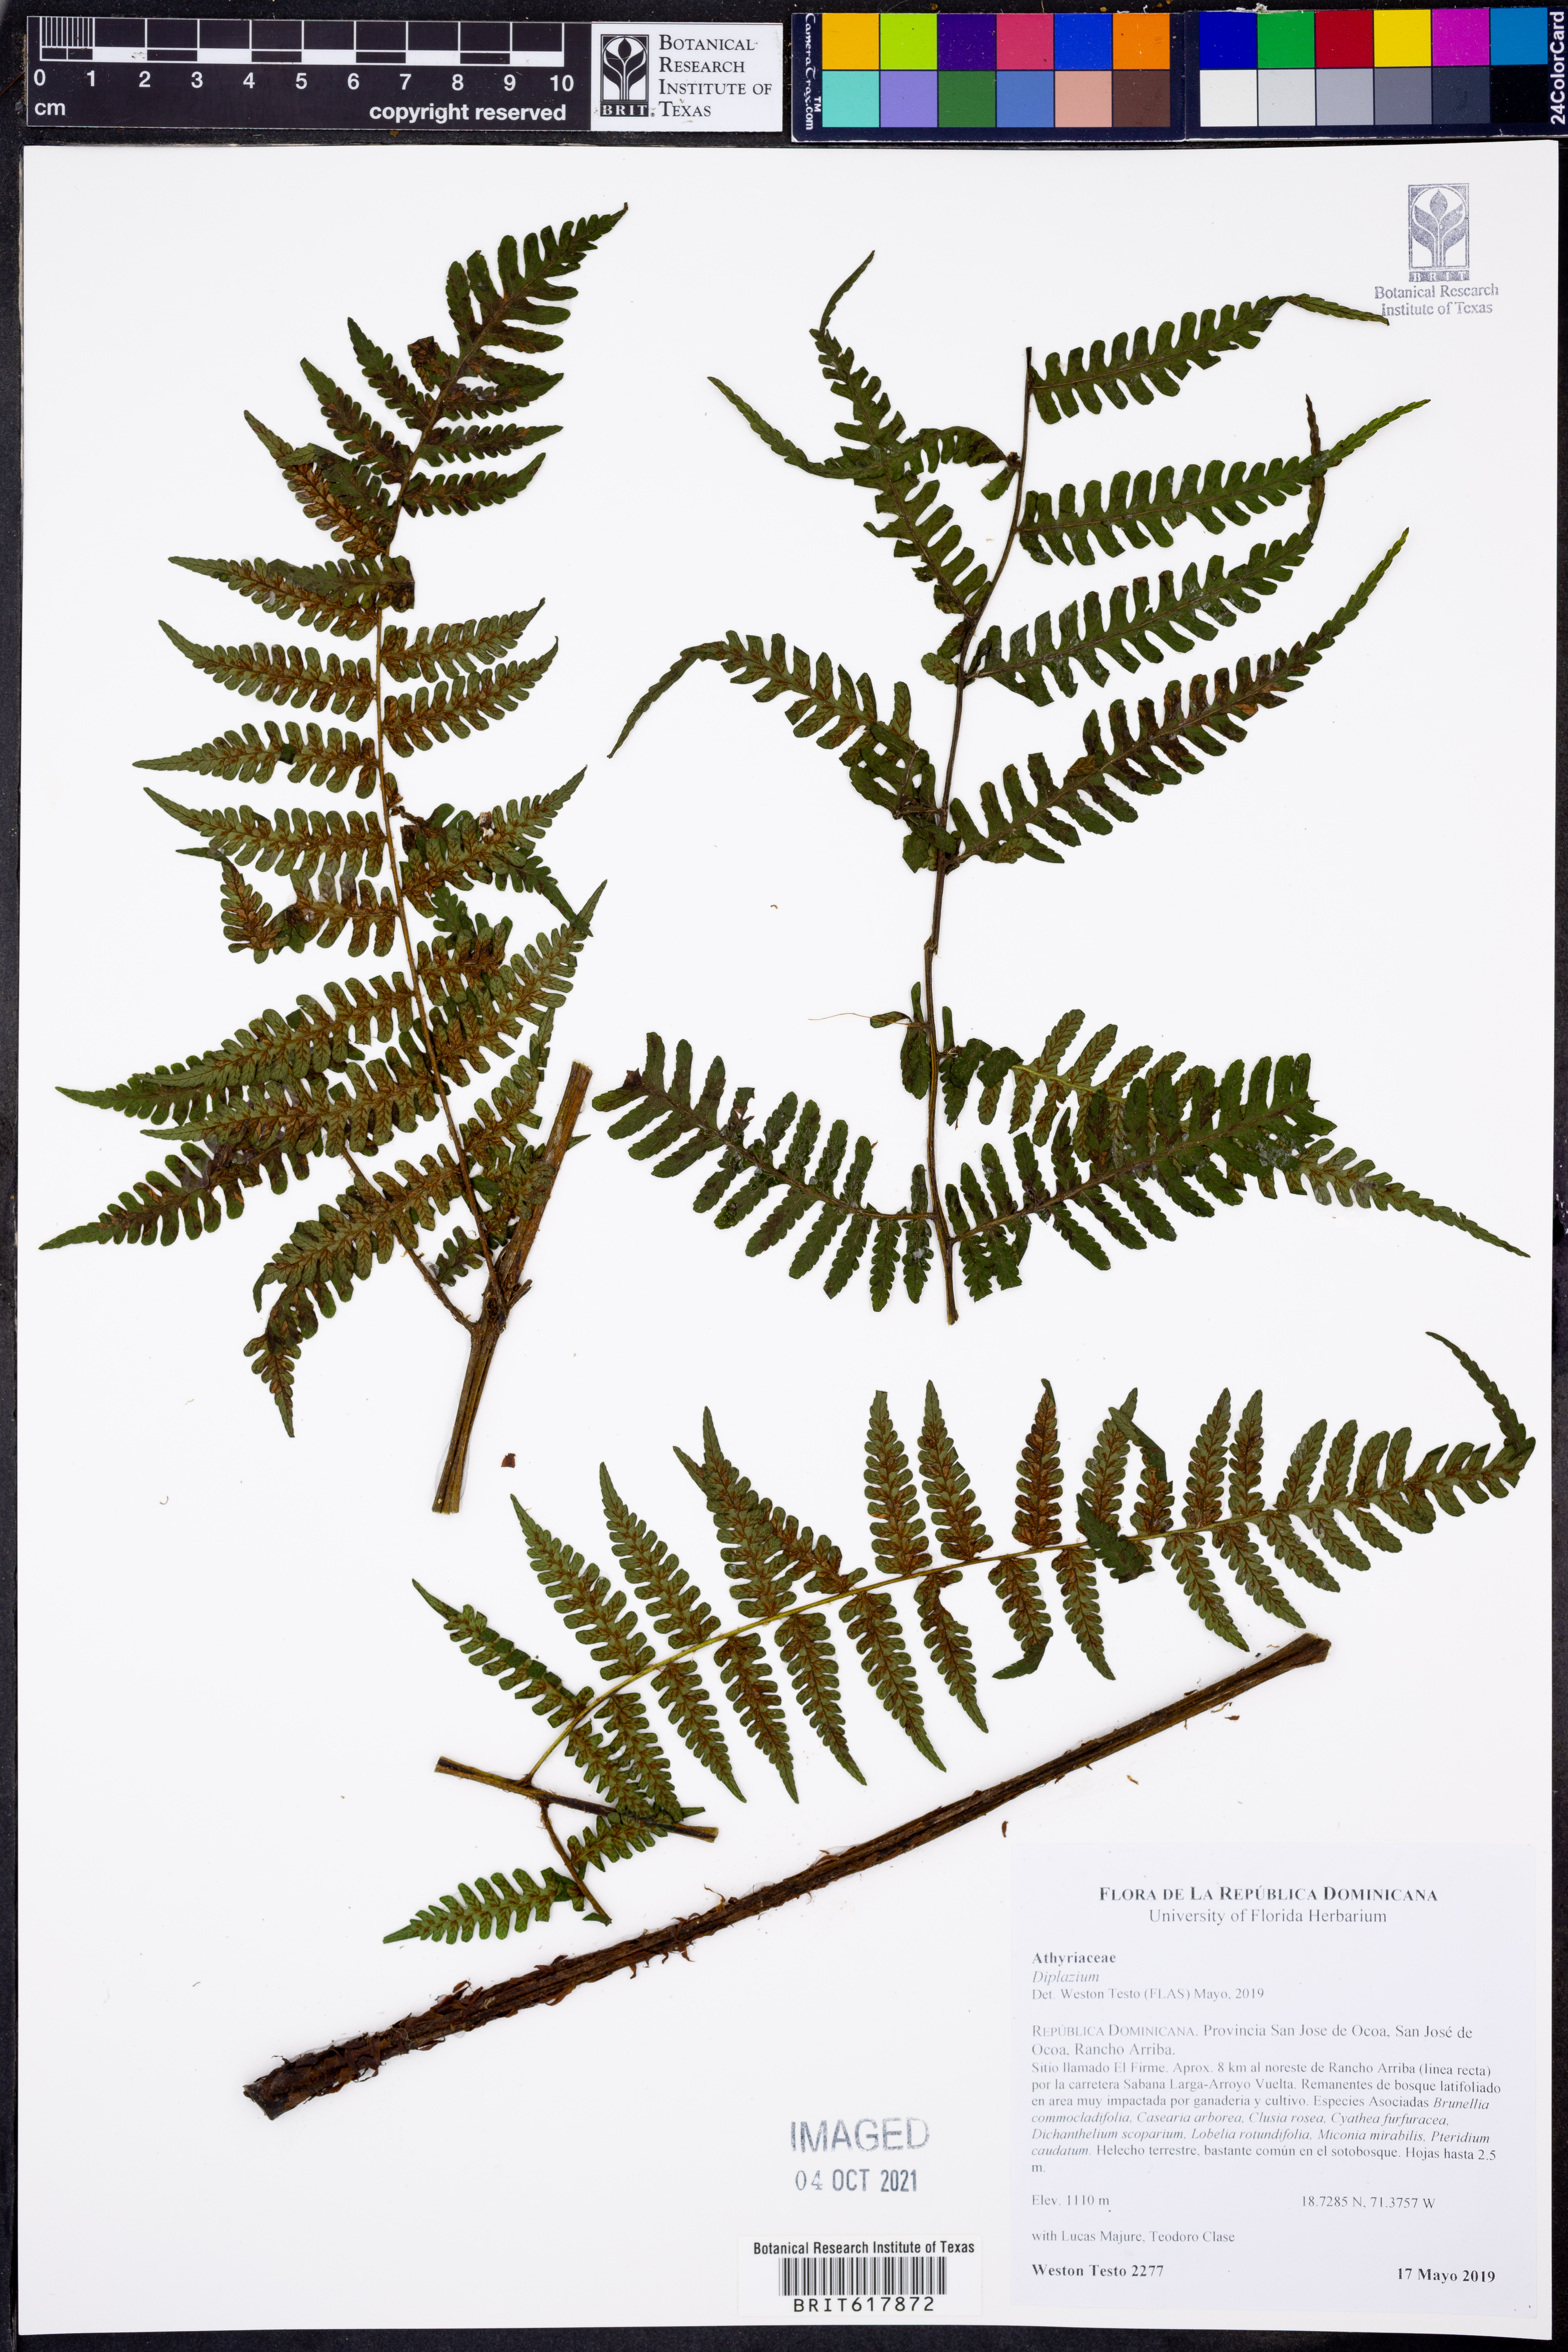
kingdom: Plantae
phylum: Tracheophyta
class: Polypodiopsida
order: Polypodiales
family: Athyriaceae
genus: Diplazium
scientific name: Diplazium
